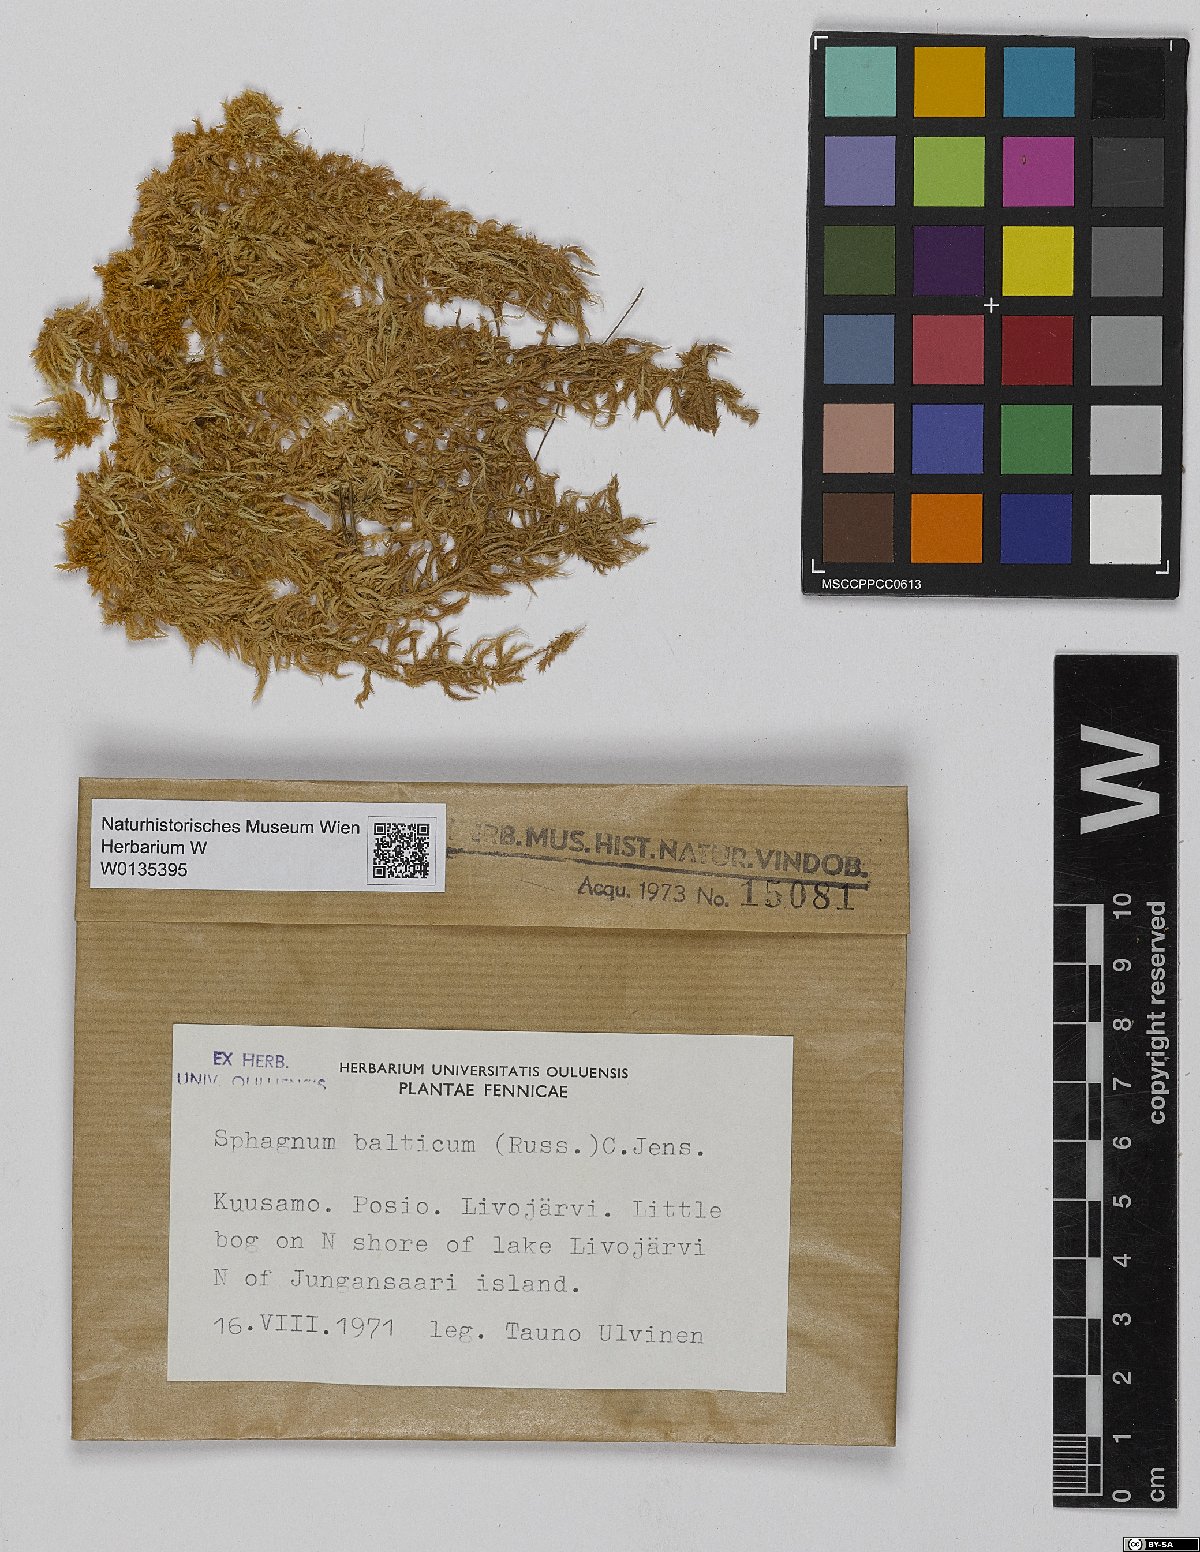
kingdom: Plantae
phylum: Bryophyta
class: Sphagnopsida
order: Sphagnales
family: Sphagnaceae
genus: Sphagnum
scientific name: Sphagnum balticum
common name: Baltic bog-moss
